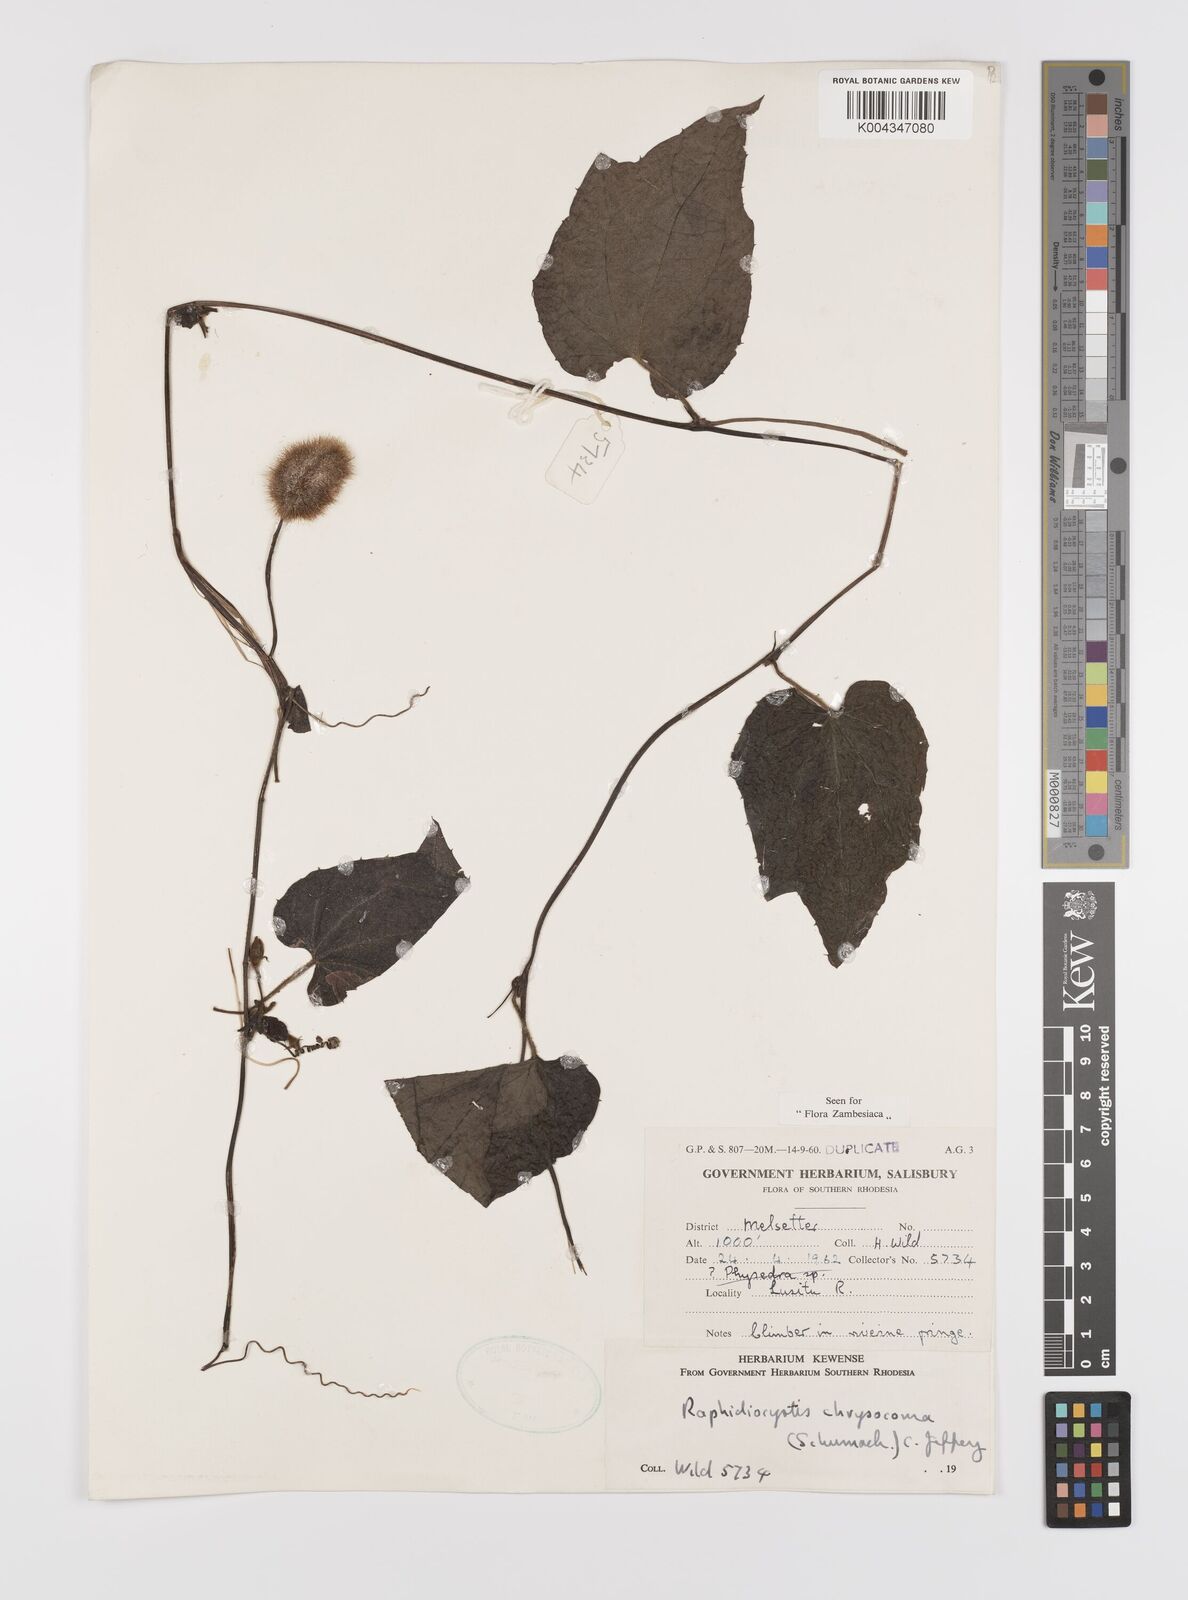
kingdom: Plantae
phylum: Tracheophyta
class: Magnoliopsida
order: Cucurbitales
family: Cucurbitaceae
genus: Raphidiocystis
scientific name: Raphidiocystis chrysocoma
